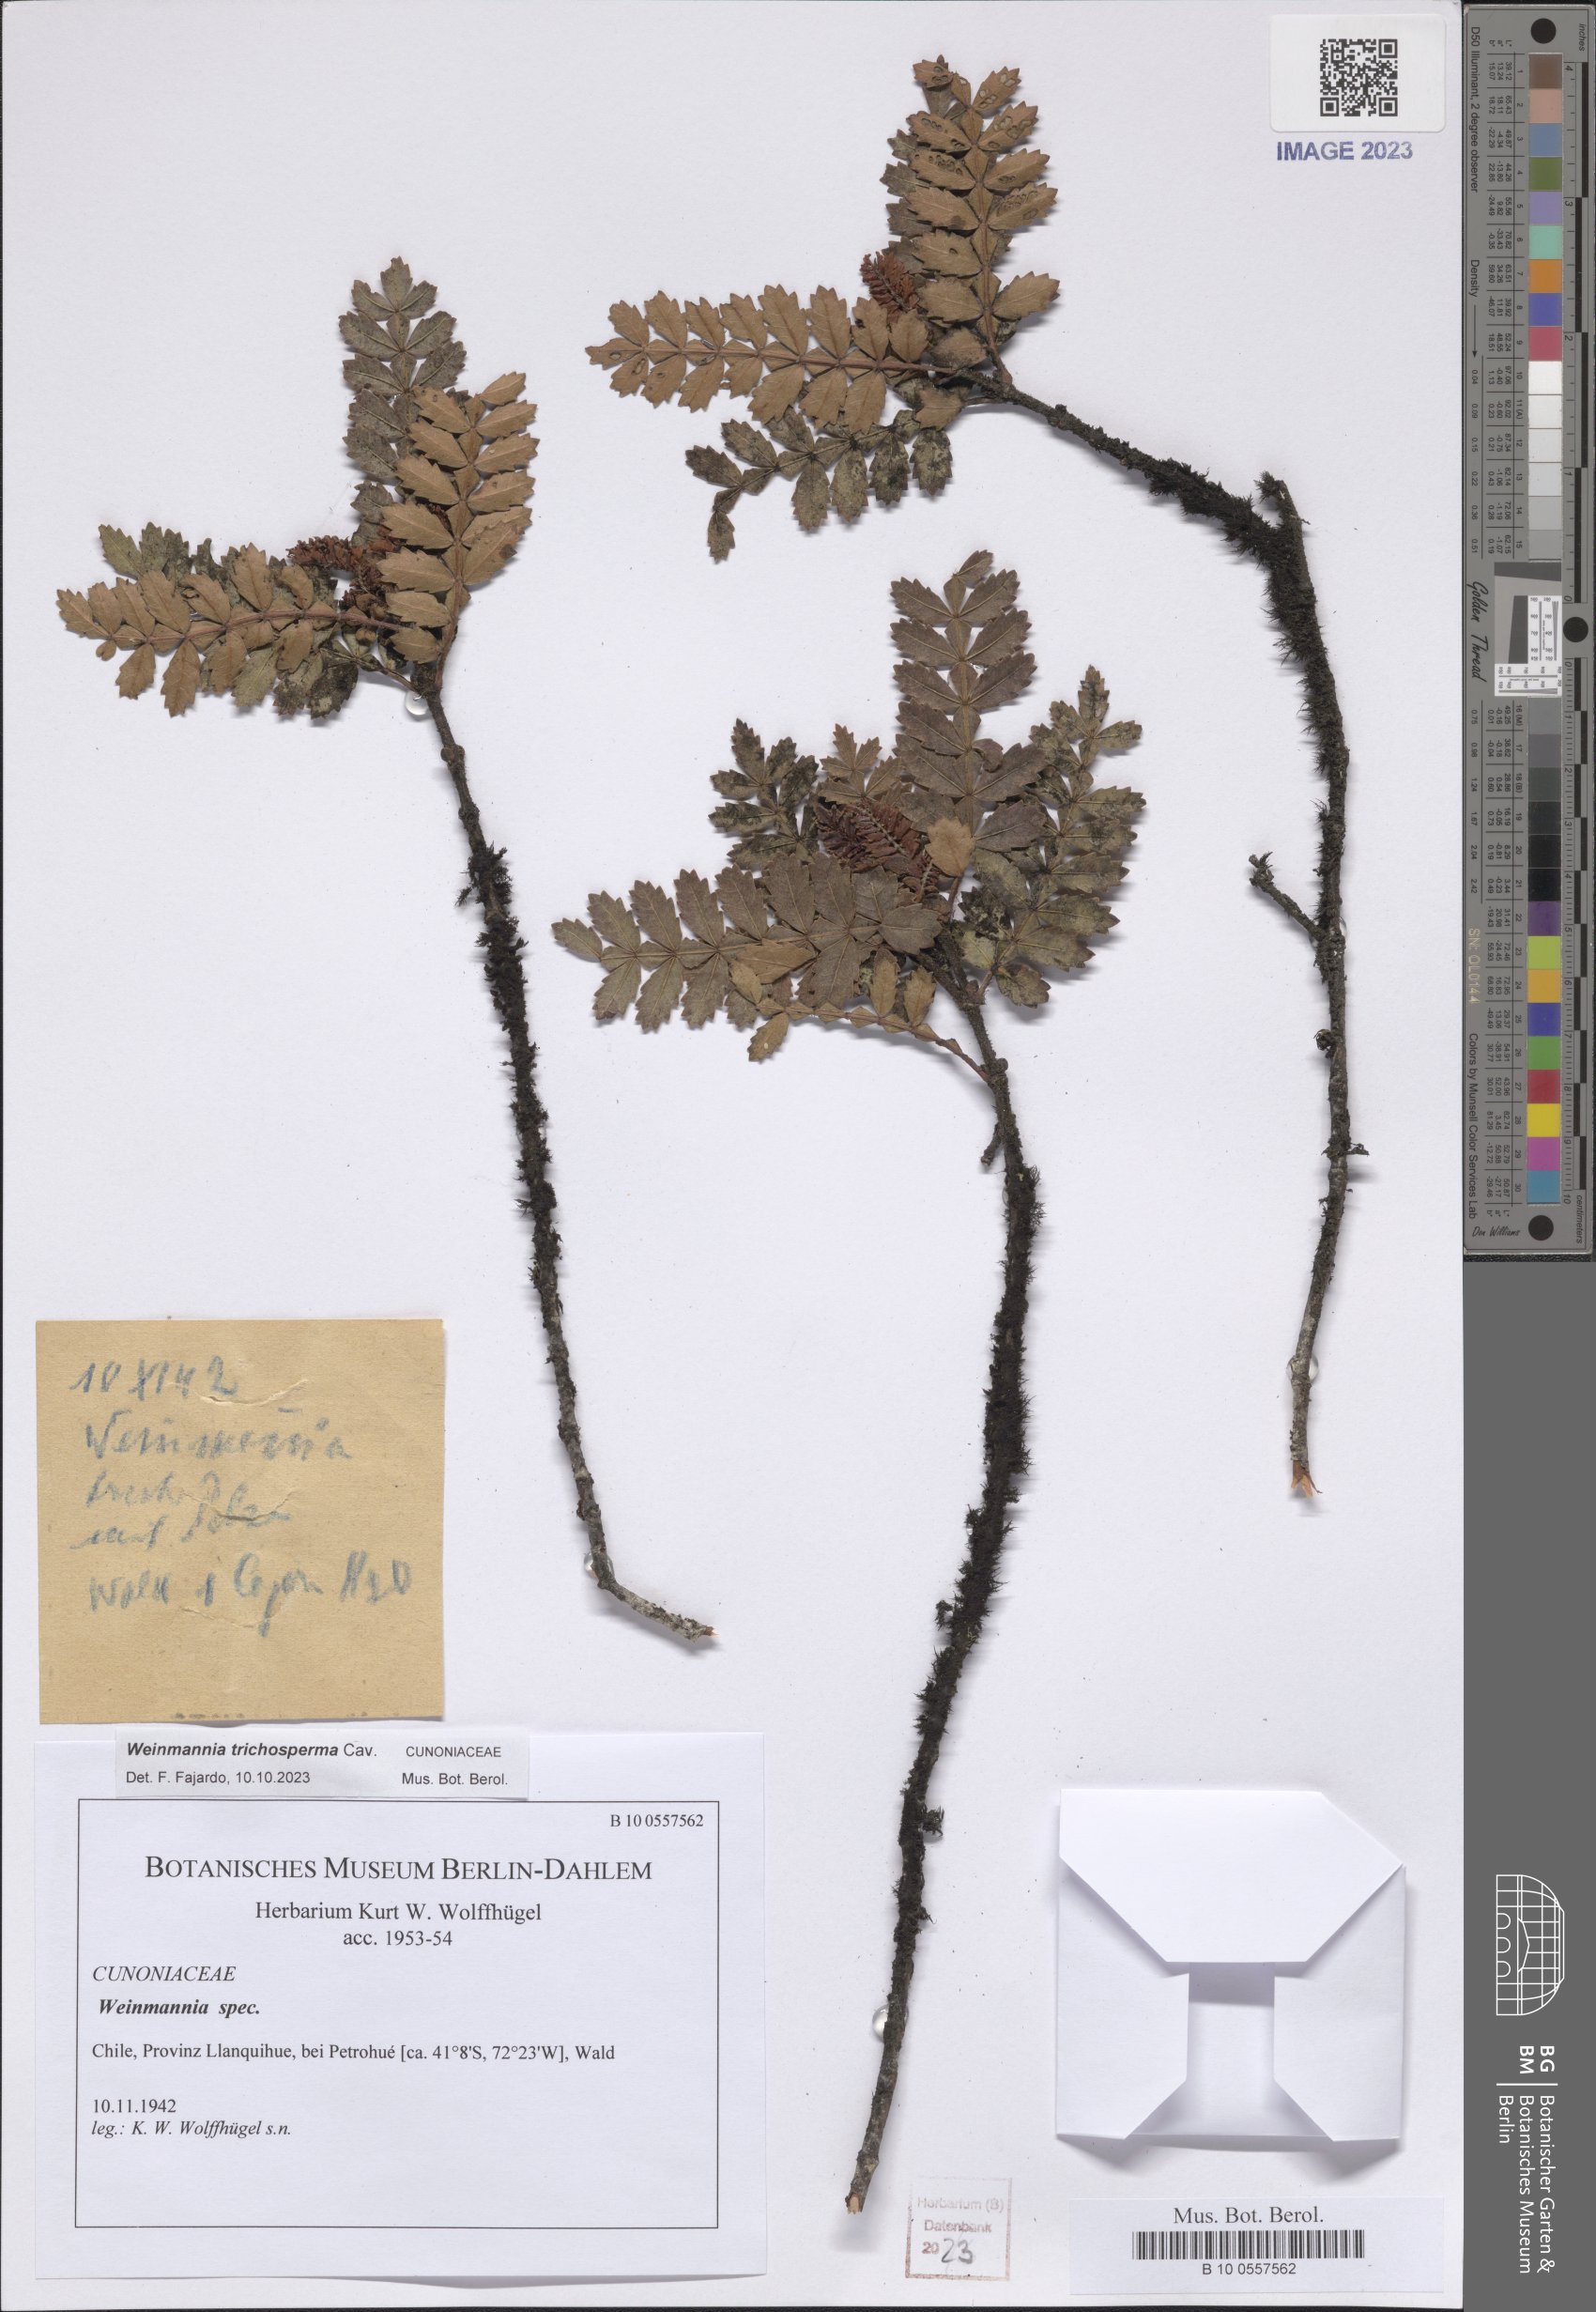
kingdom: Plantae
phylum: Tracheophyta
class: Magnoliopsida
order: Oxalidales
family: Cunoniaceae
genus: Weinmannia
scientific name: Weinmannia trichosperma
